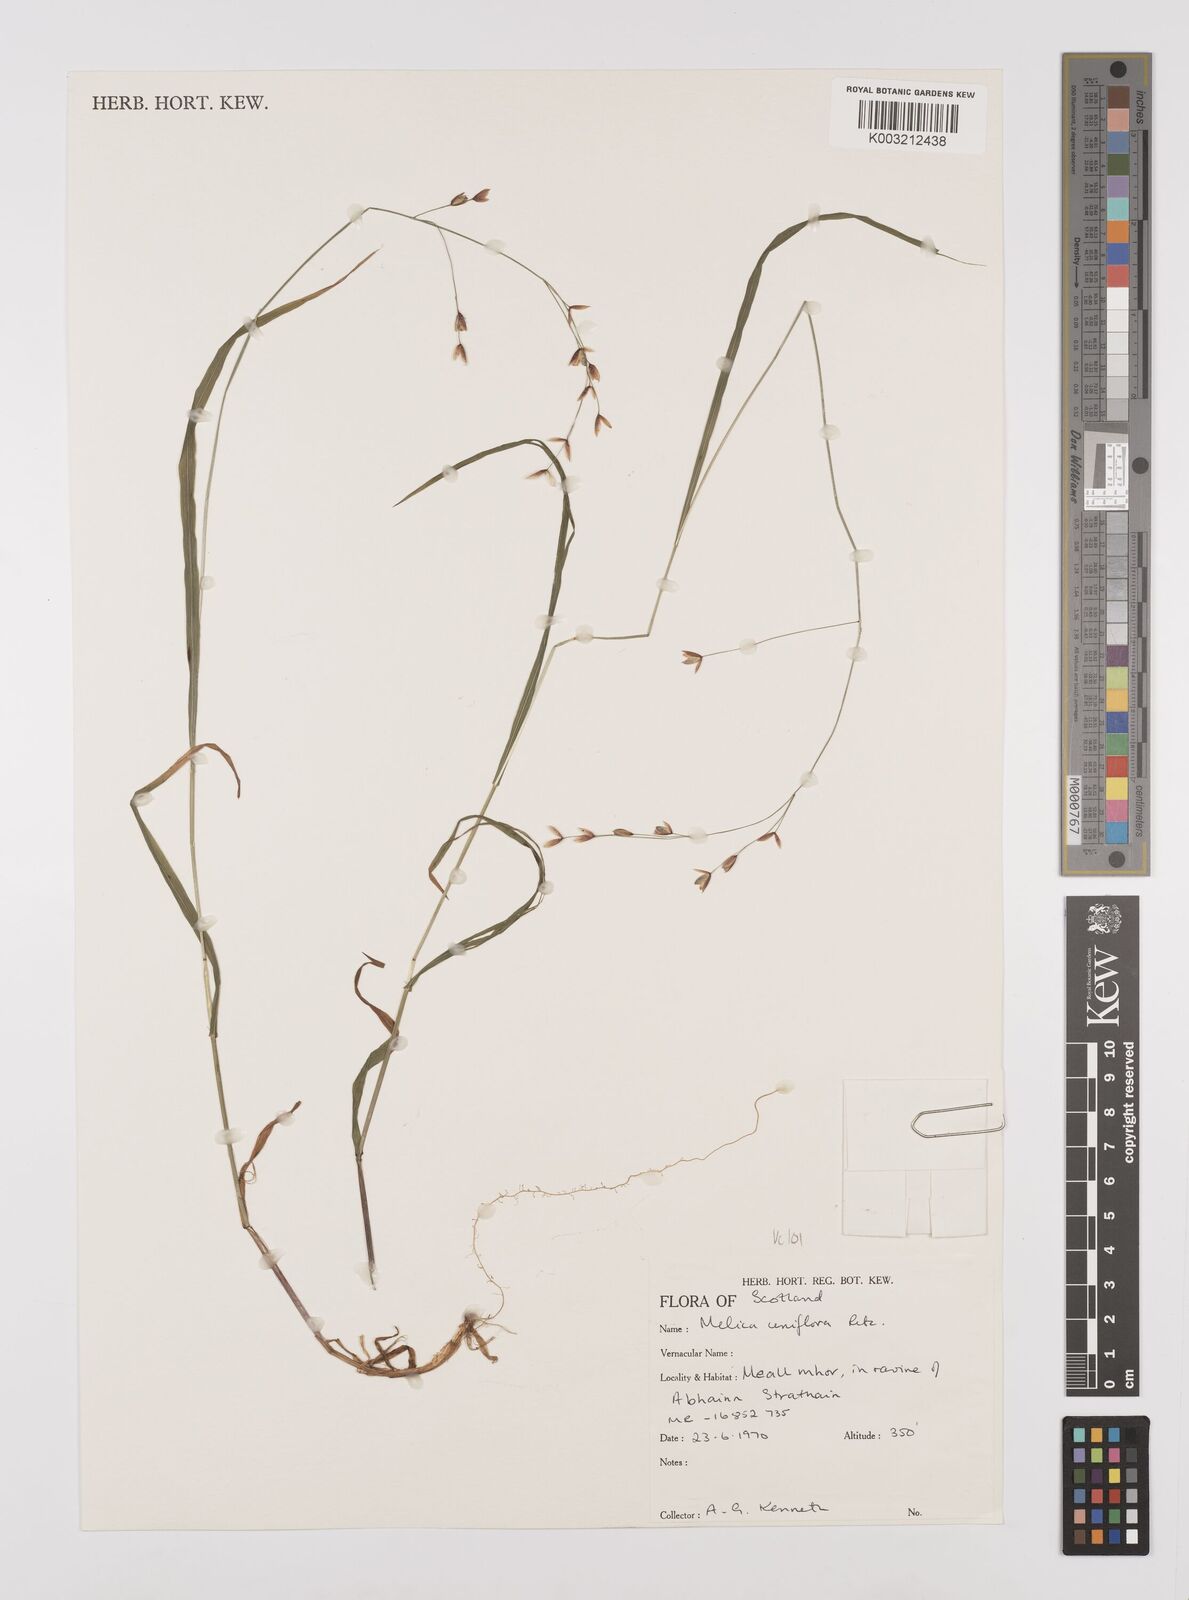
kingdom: Plantae
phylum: Tracheophyta
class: Liliopsida
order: Poales
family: Poaceae
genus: Melica
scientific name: Melica uniflora
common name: Wood melick
